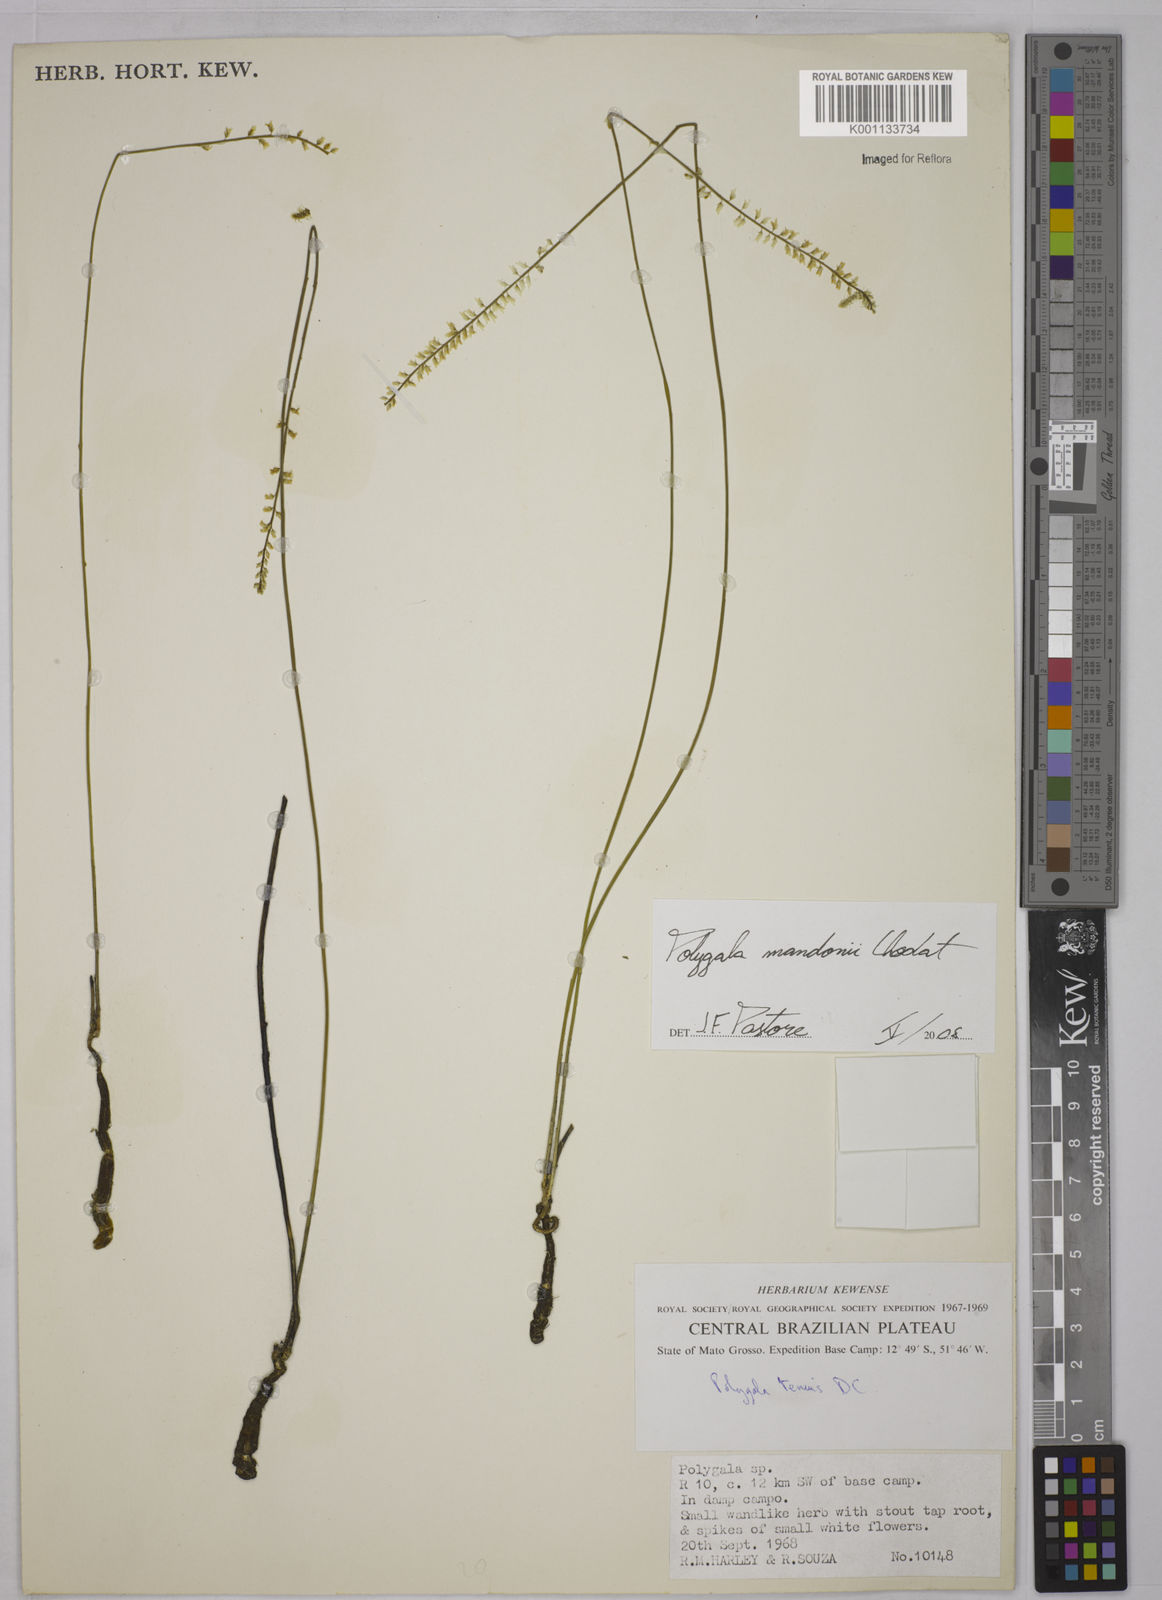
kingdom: Plantae
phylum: Tracheophyta
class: Magnoliopsida
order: Fabales
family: Polygalaceae
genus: Polygala
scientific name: Polygala mandonii
